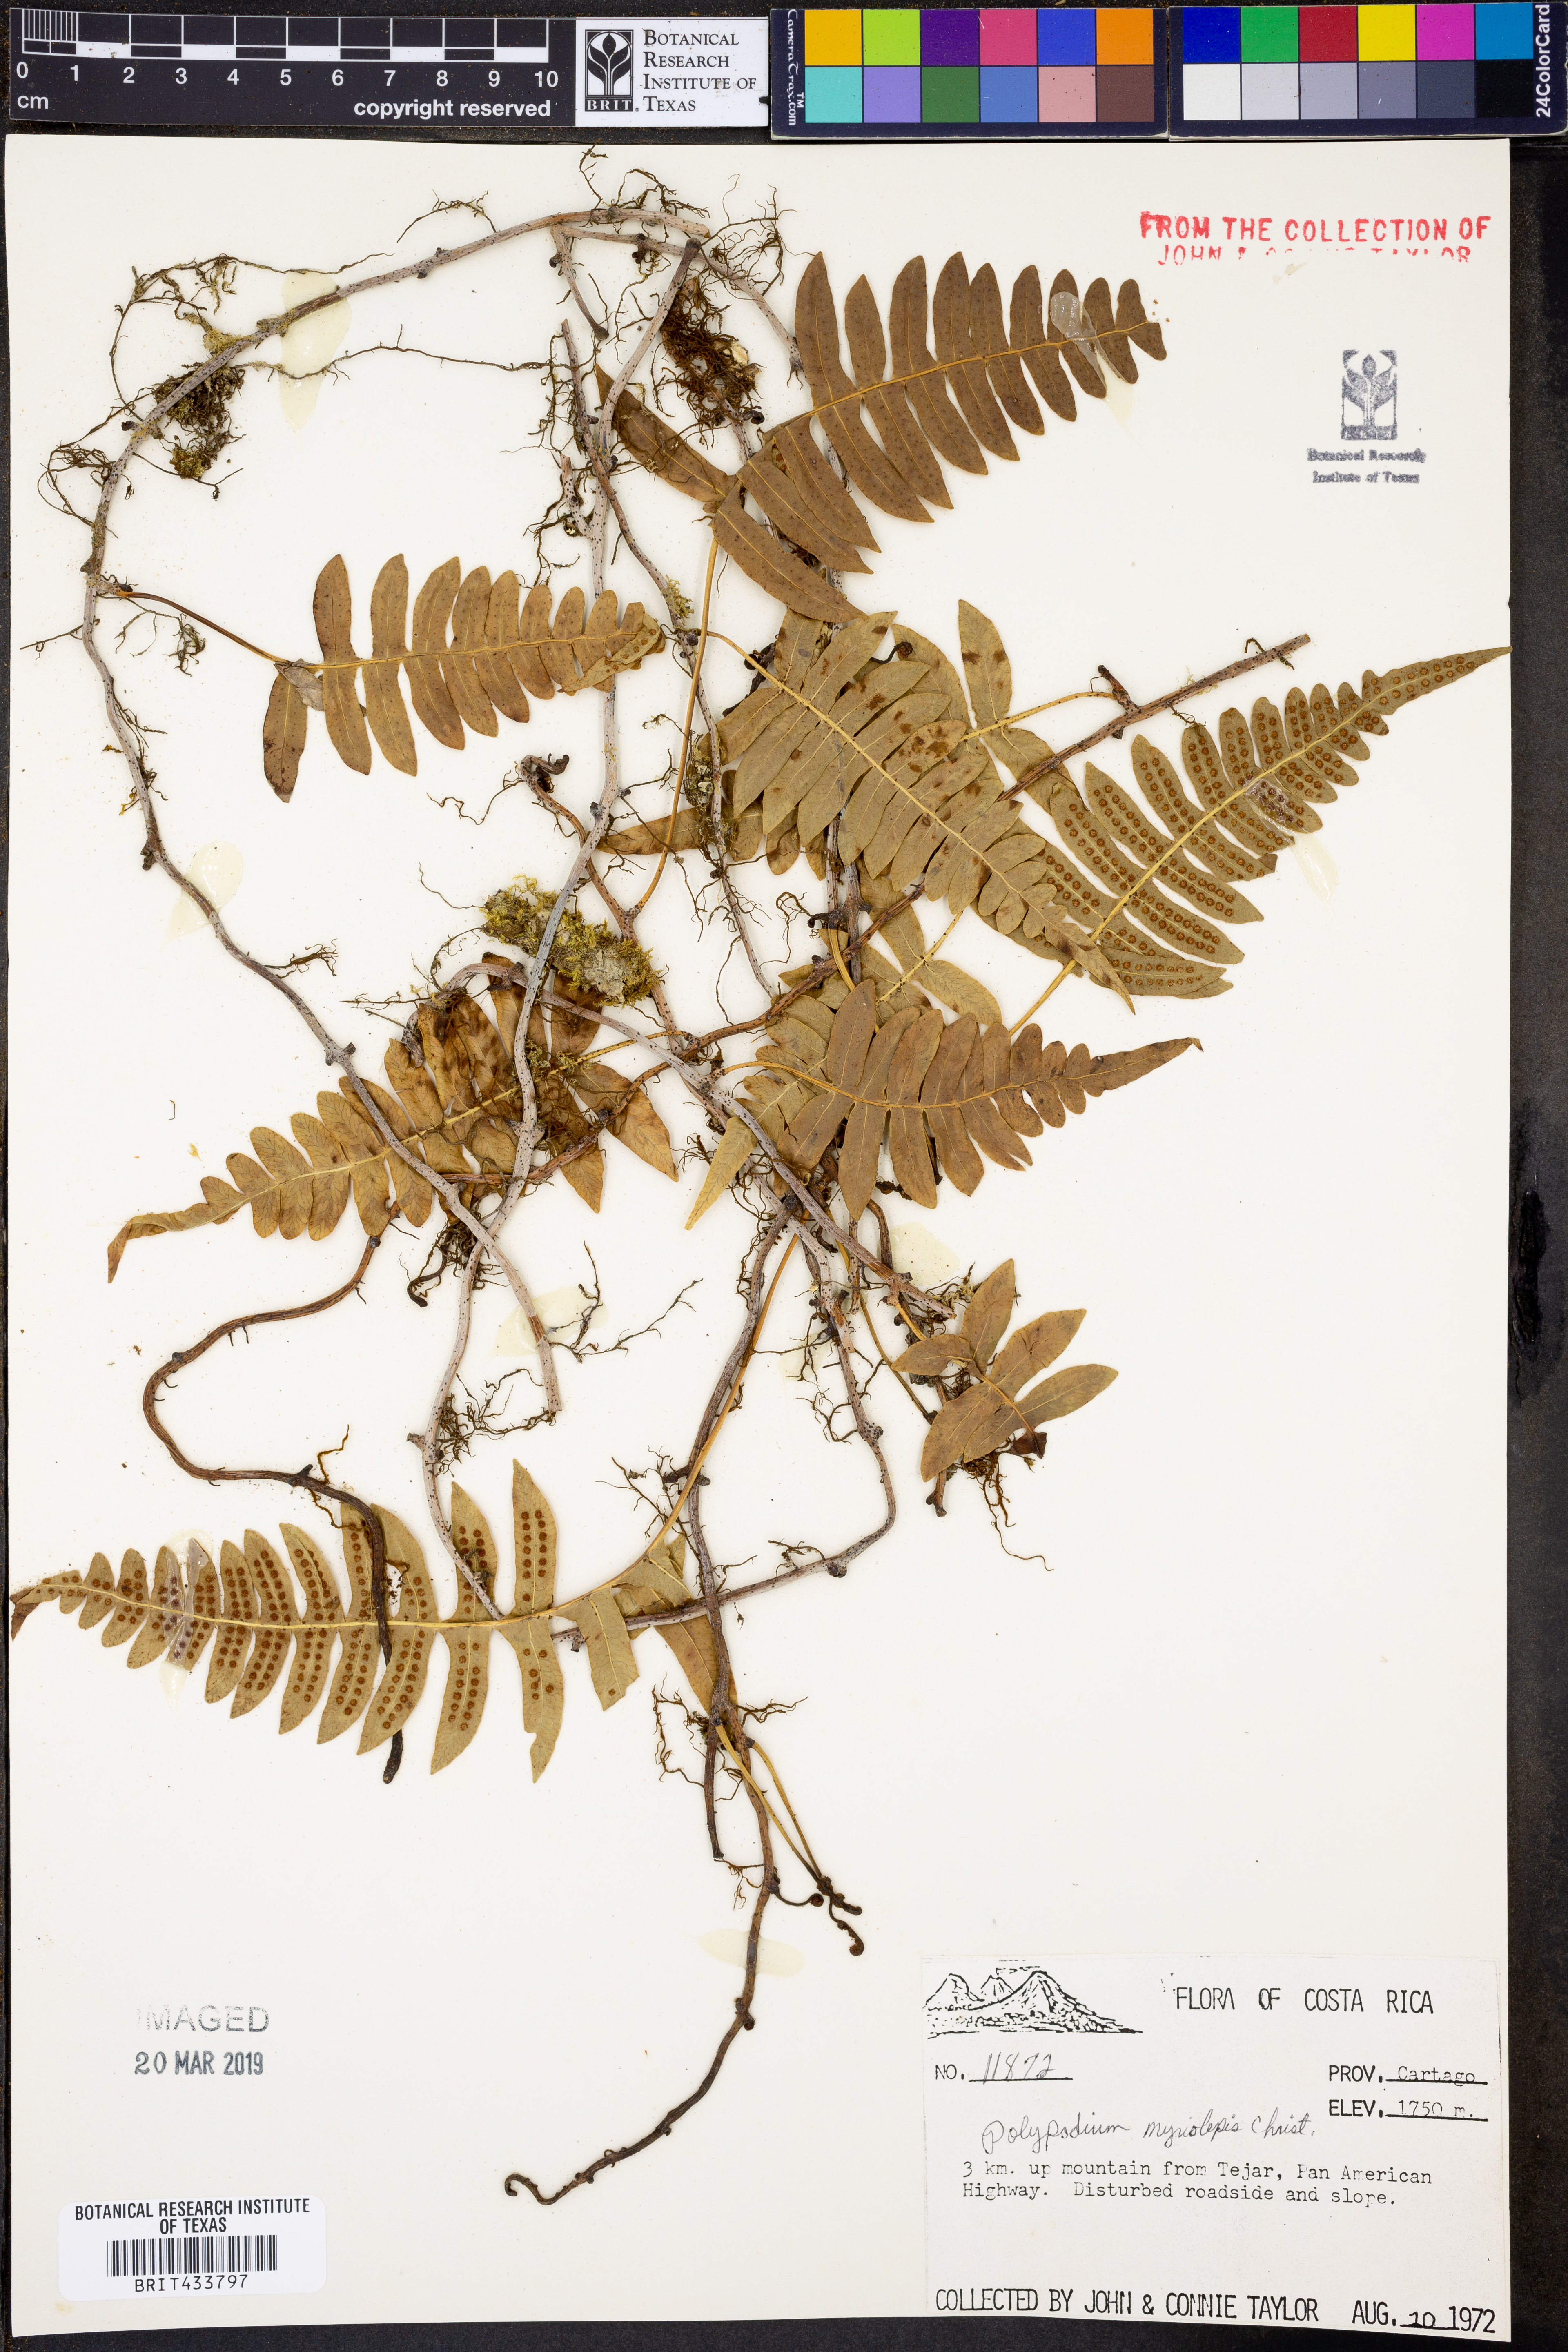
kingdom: Plantae
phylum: Tracheophyta
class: Polypodiopsida
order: Polypodiales
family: Polypodiaceae
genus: Pleopeltis
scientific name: Pleopeltis myriolepis
